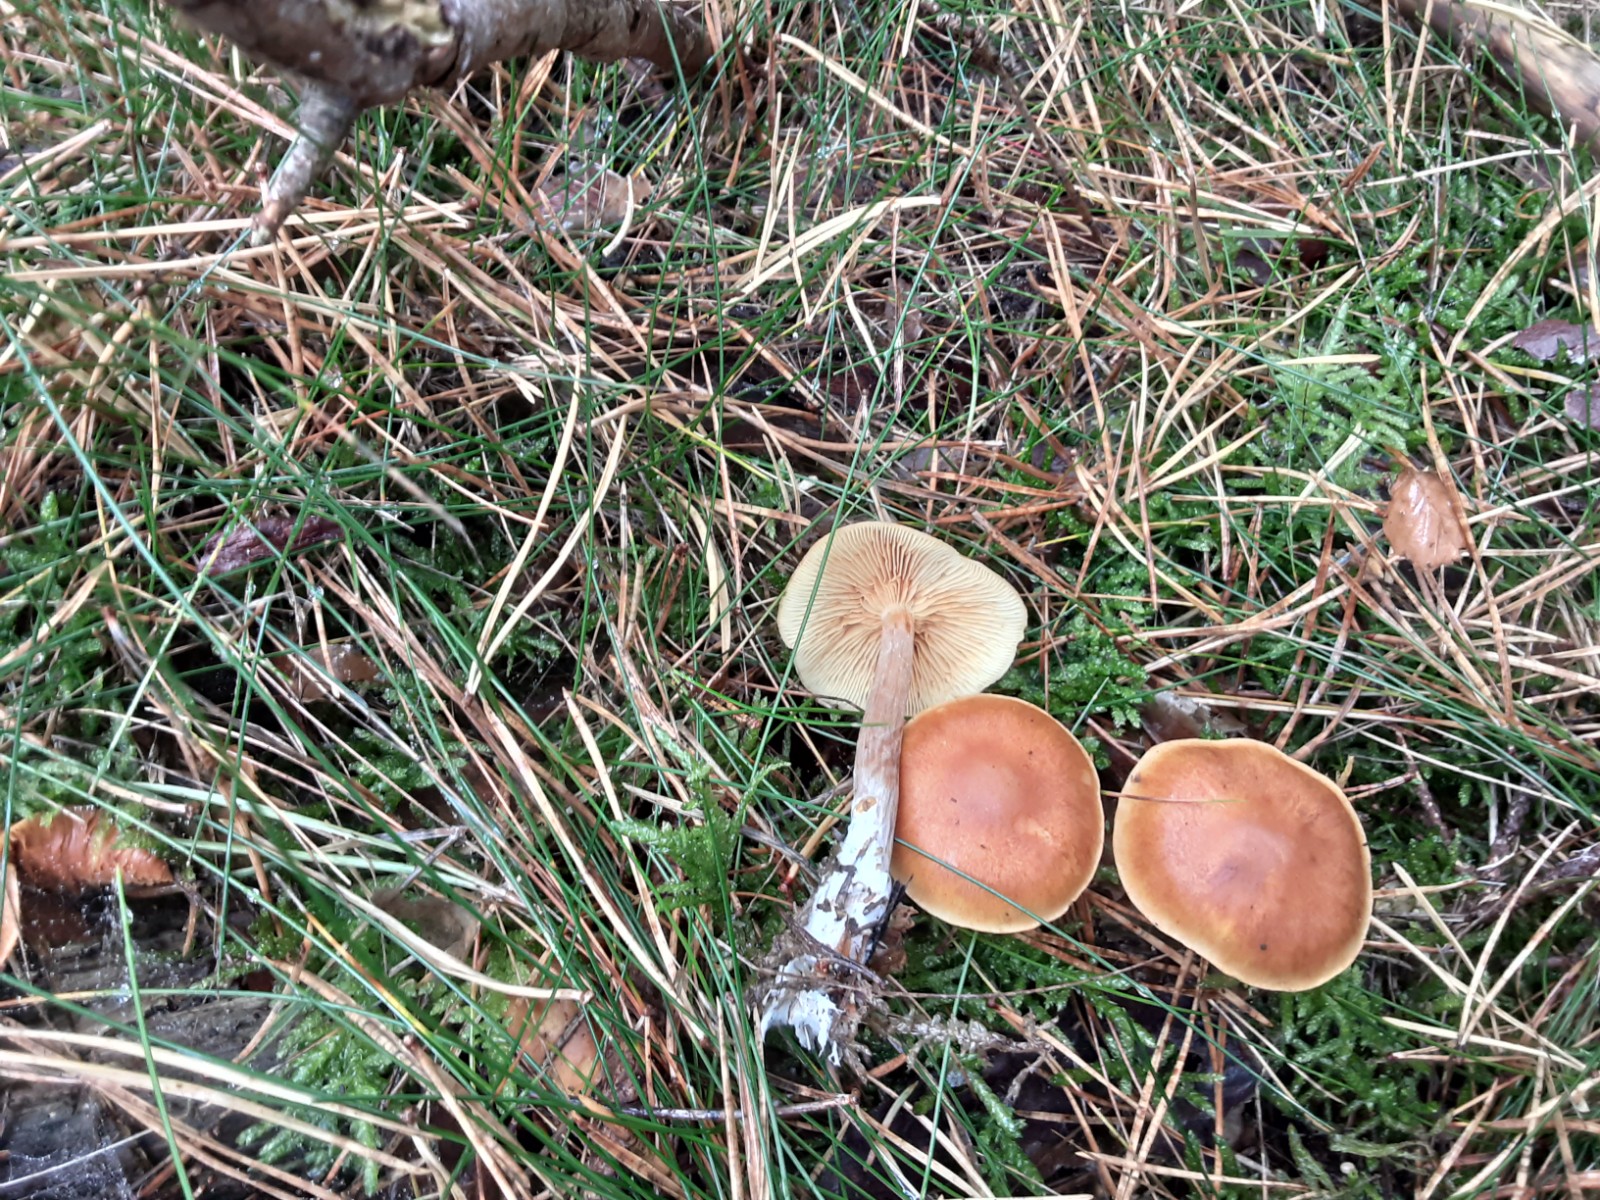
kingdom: Fungi
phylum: Basidiomycota
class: Agaricomycetes
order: Agaricales
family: Hymenogastraceae
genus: Gymnopilus
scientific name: Gymnopilus penetrans
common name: plettet flammehat
